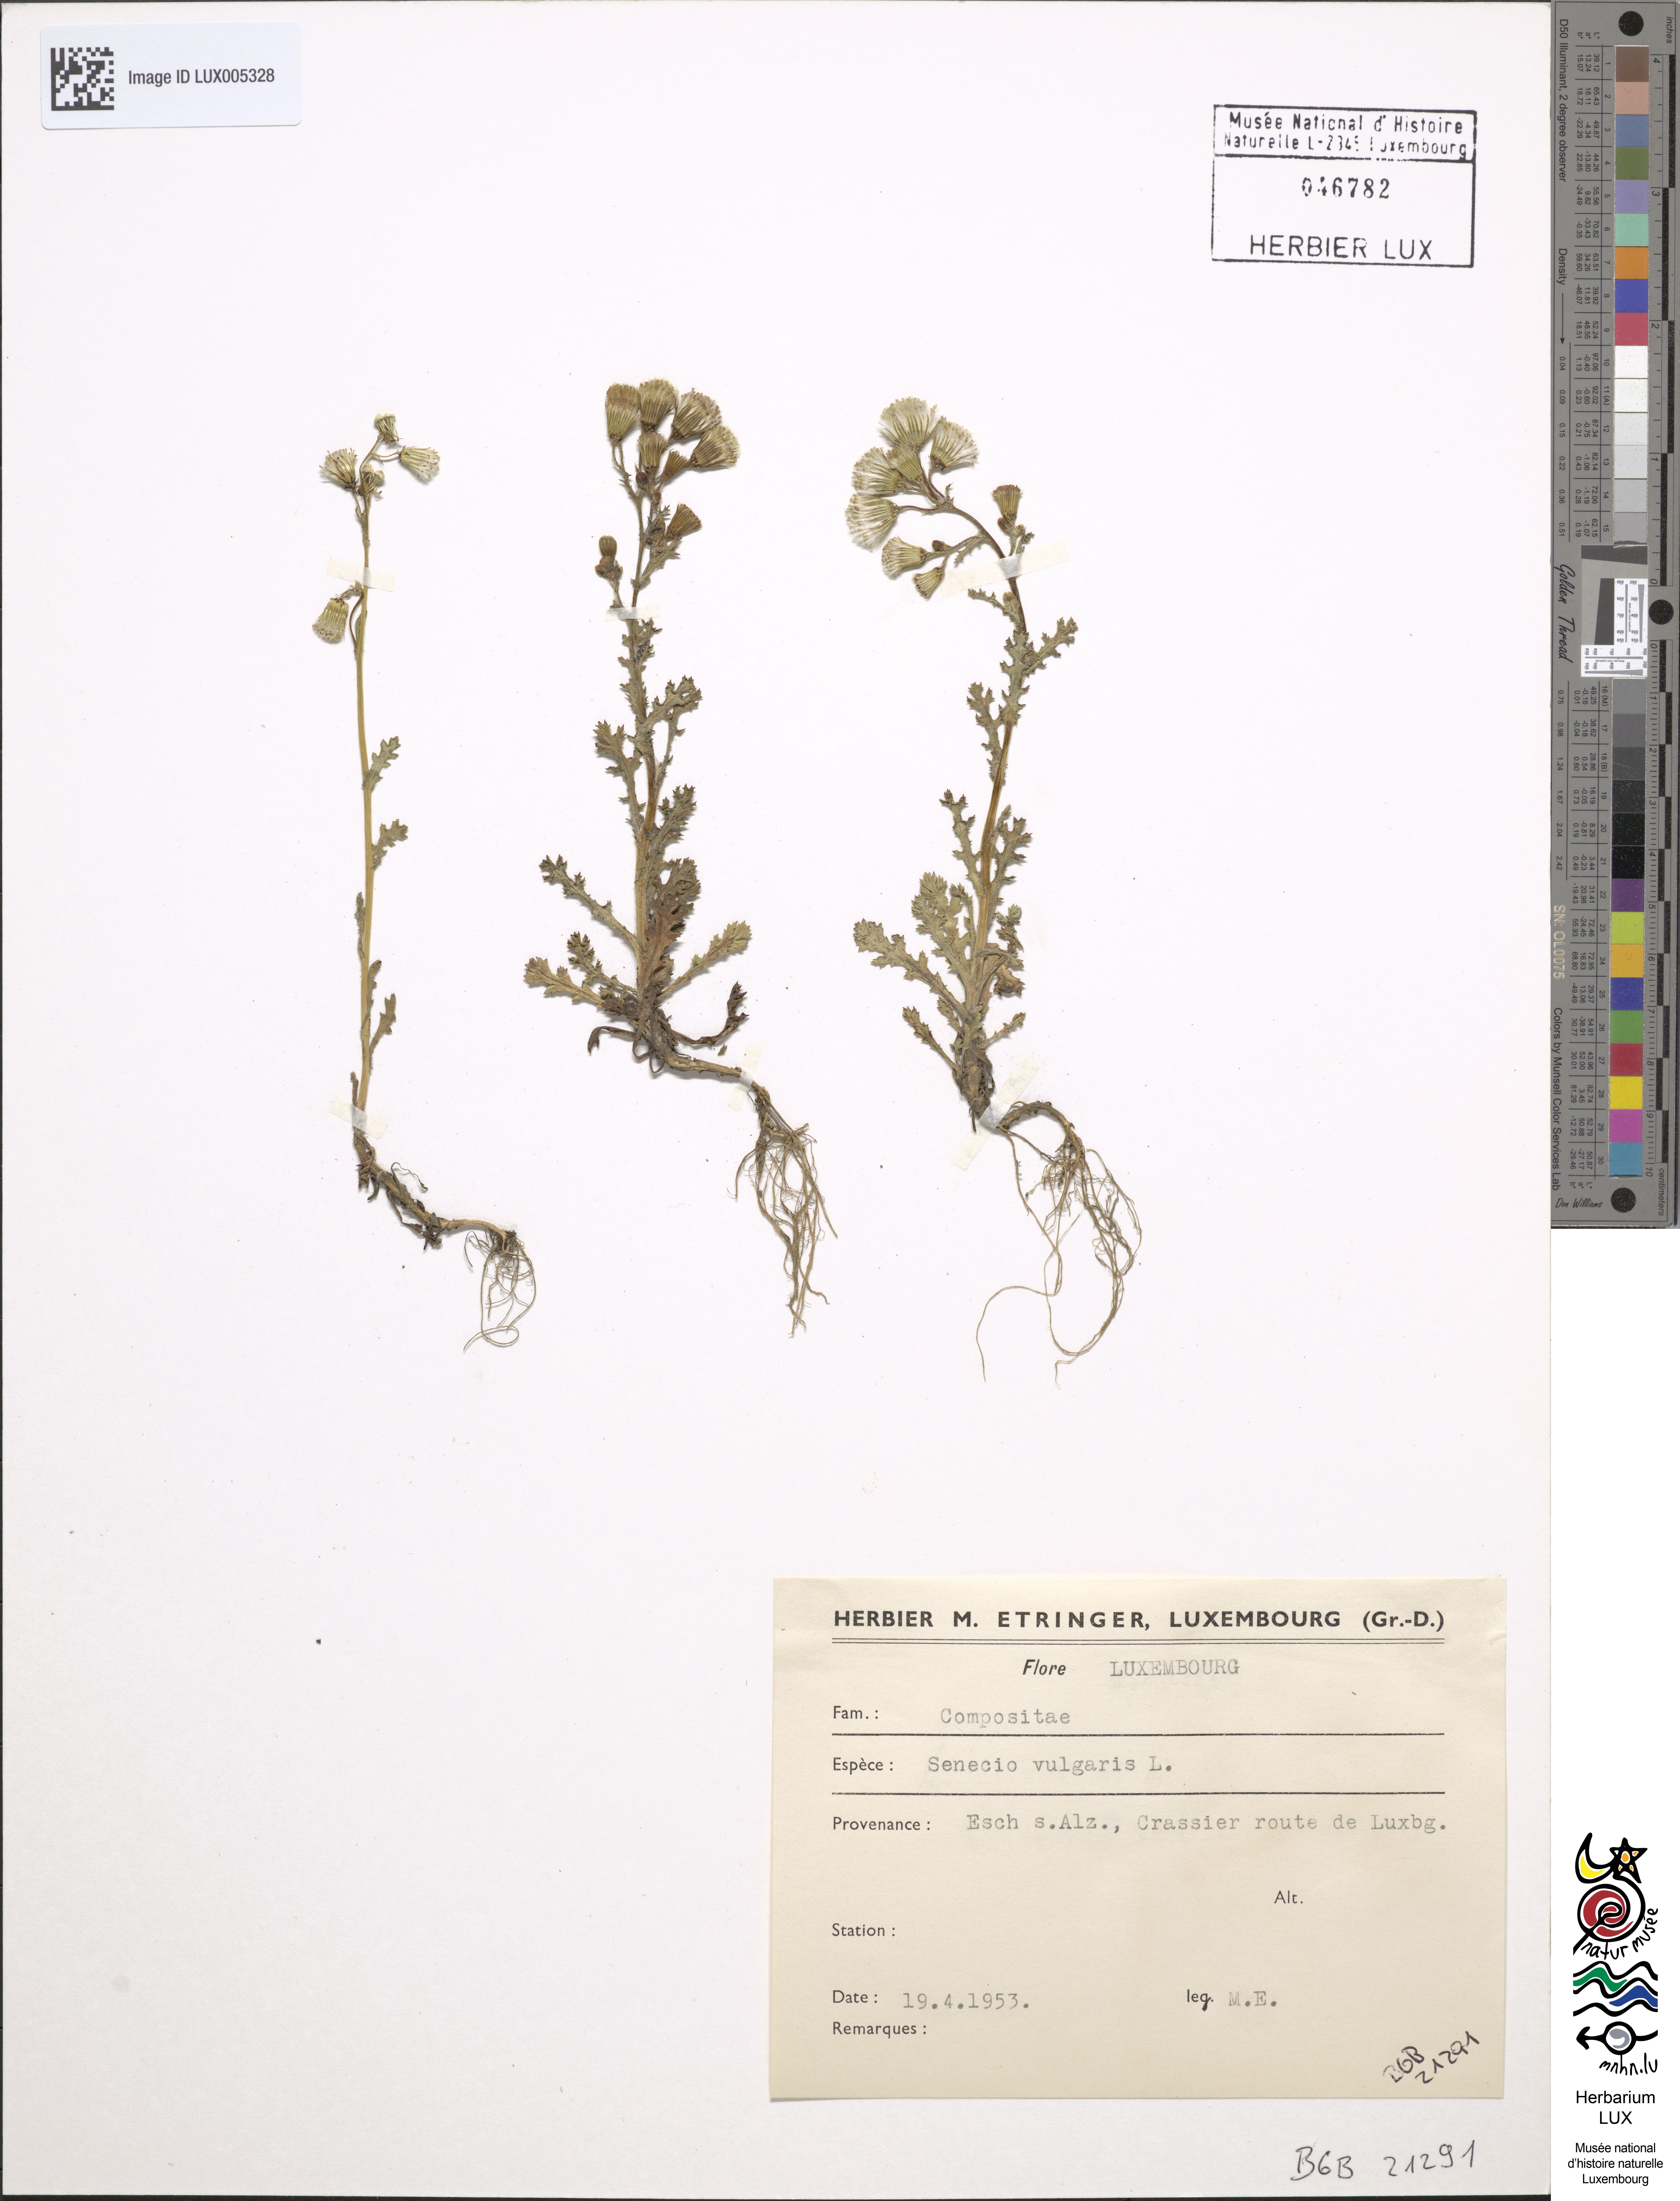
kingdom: Plantae
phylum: Tracheophyta
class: Magnoliopsida
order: Asterales
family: Asteraceae
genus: Senecio
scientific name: Senecio vulgaris
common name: Old-man-in-the-spring
